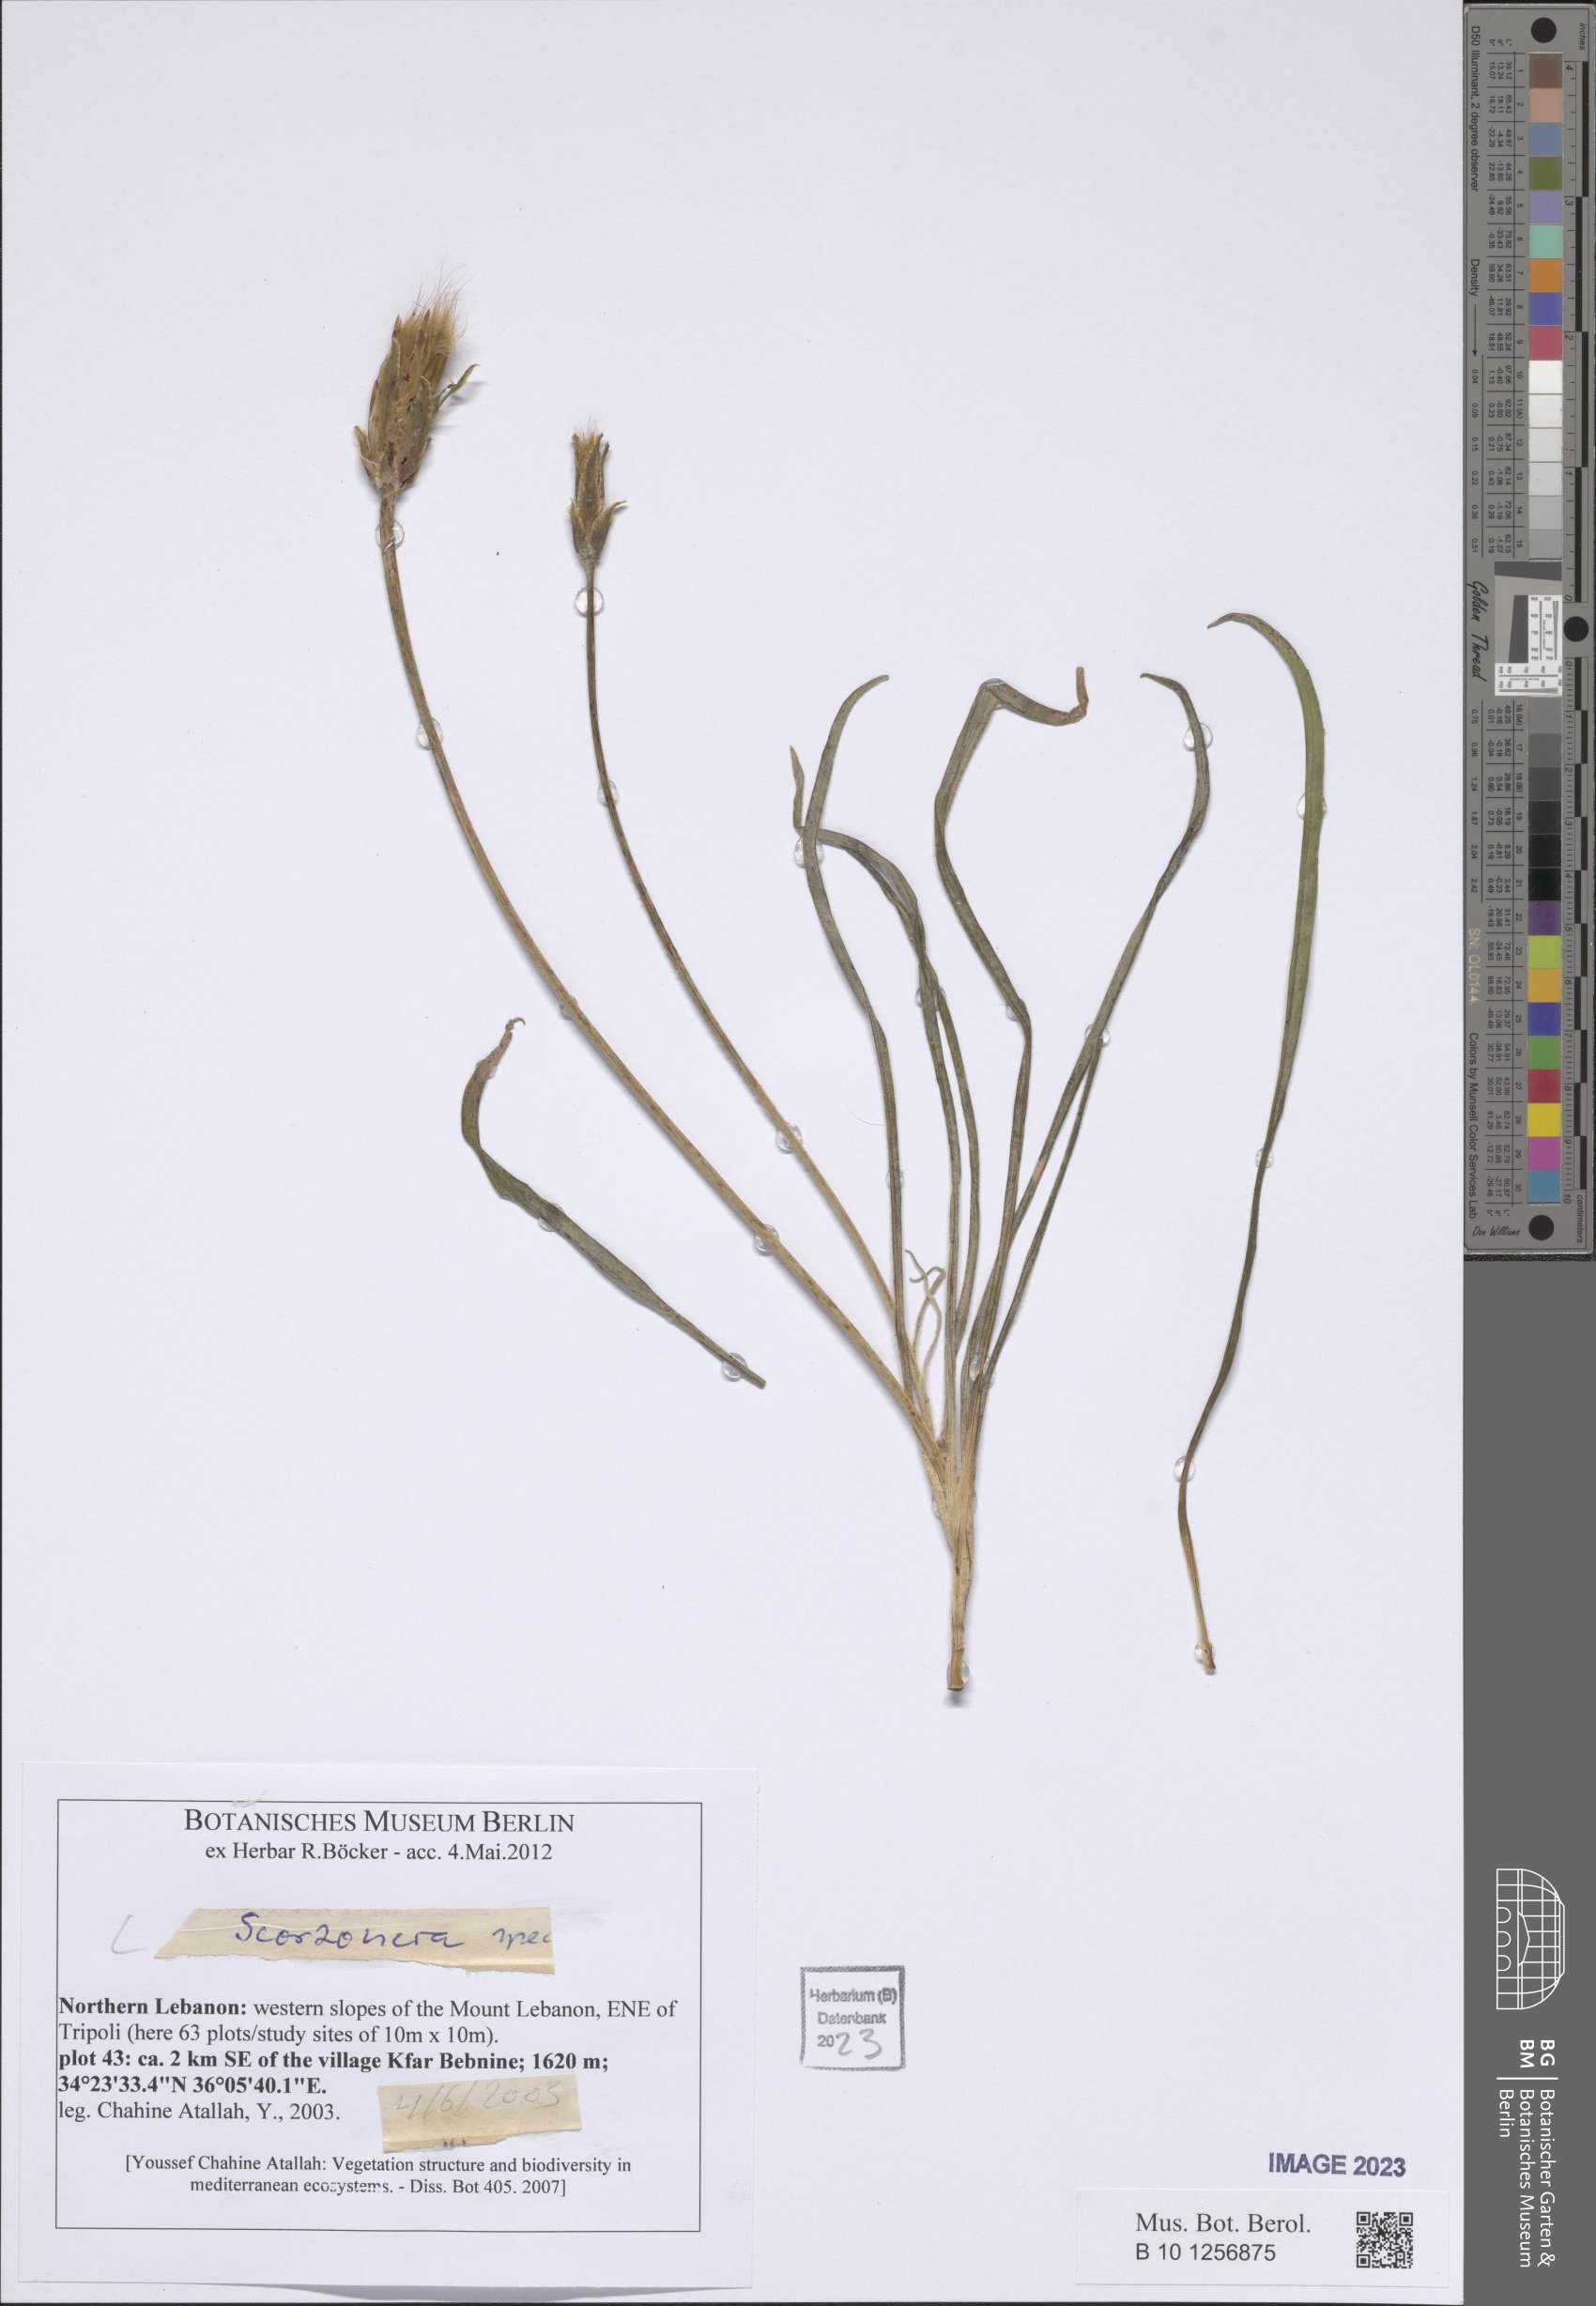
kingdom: Plantae
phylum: Tracheophyta
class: Magnoliopsida
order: Asterales
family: Asteraceae
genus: Scorzonera
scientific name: Scorzonera
